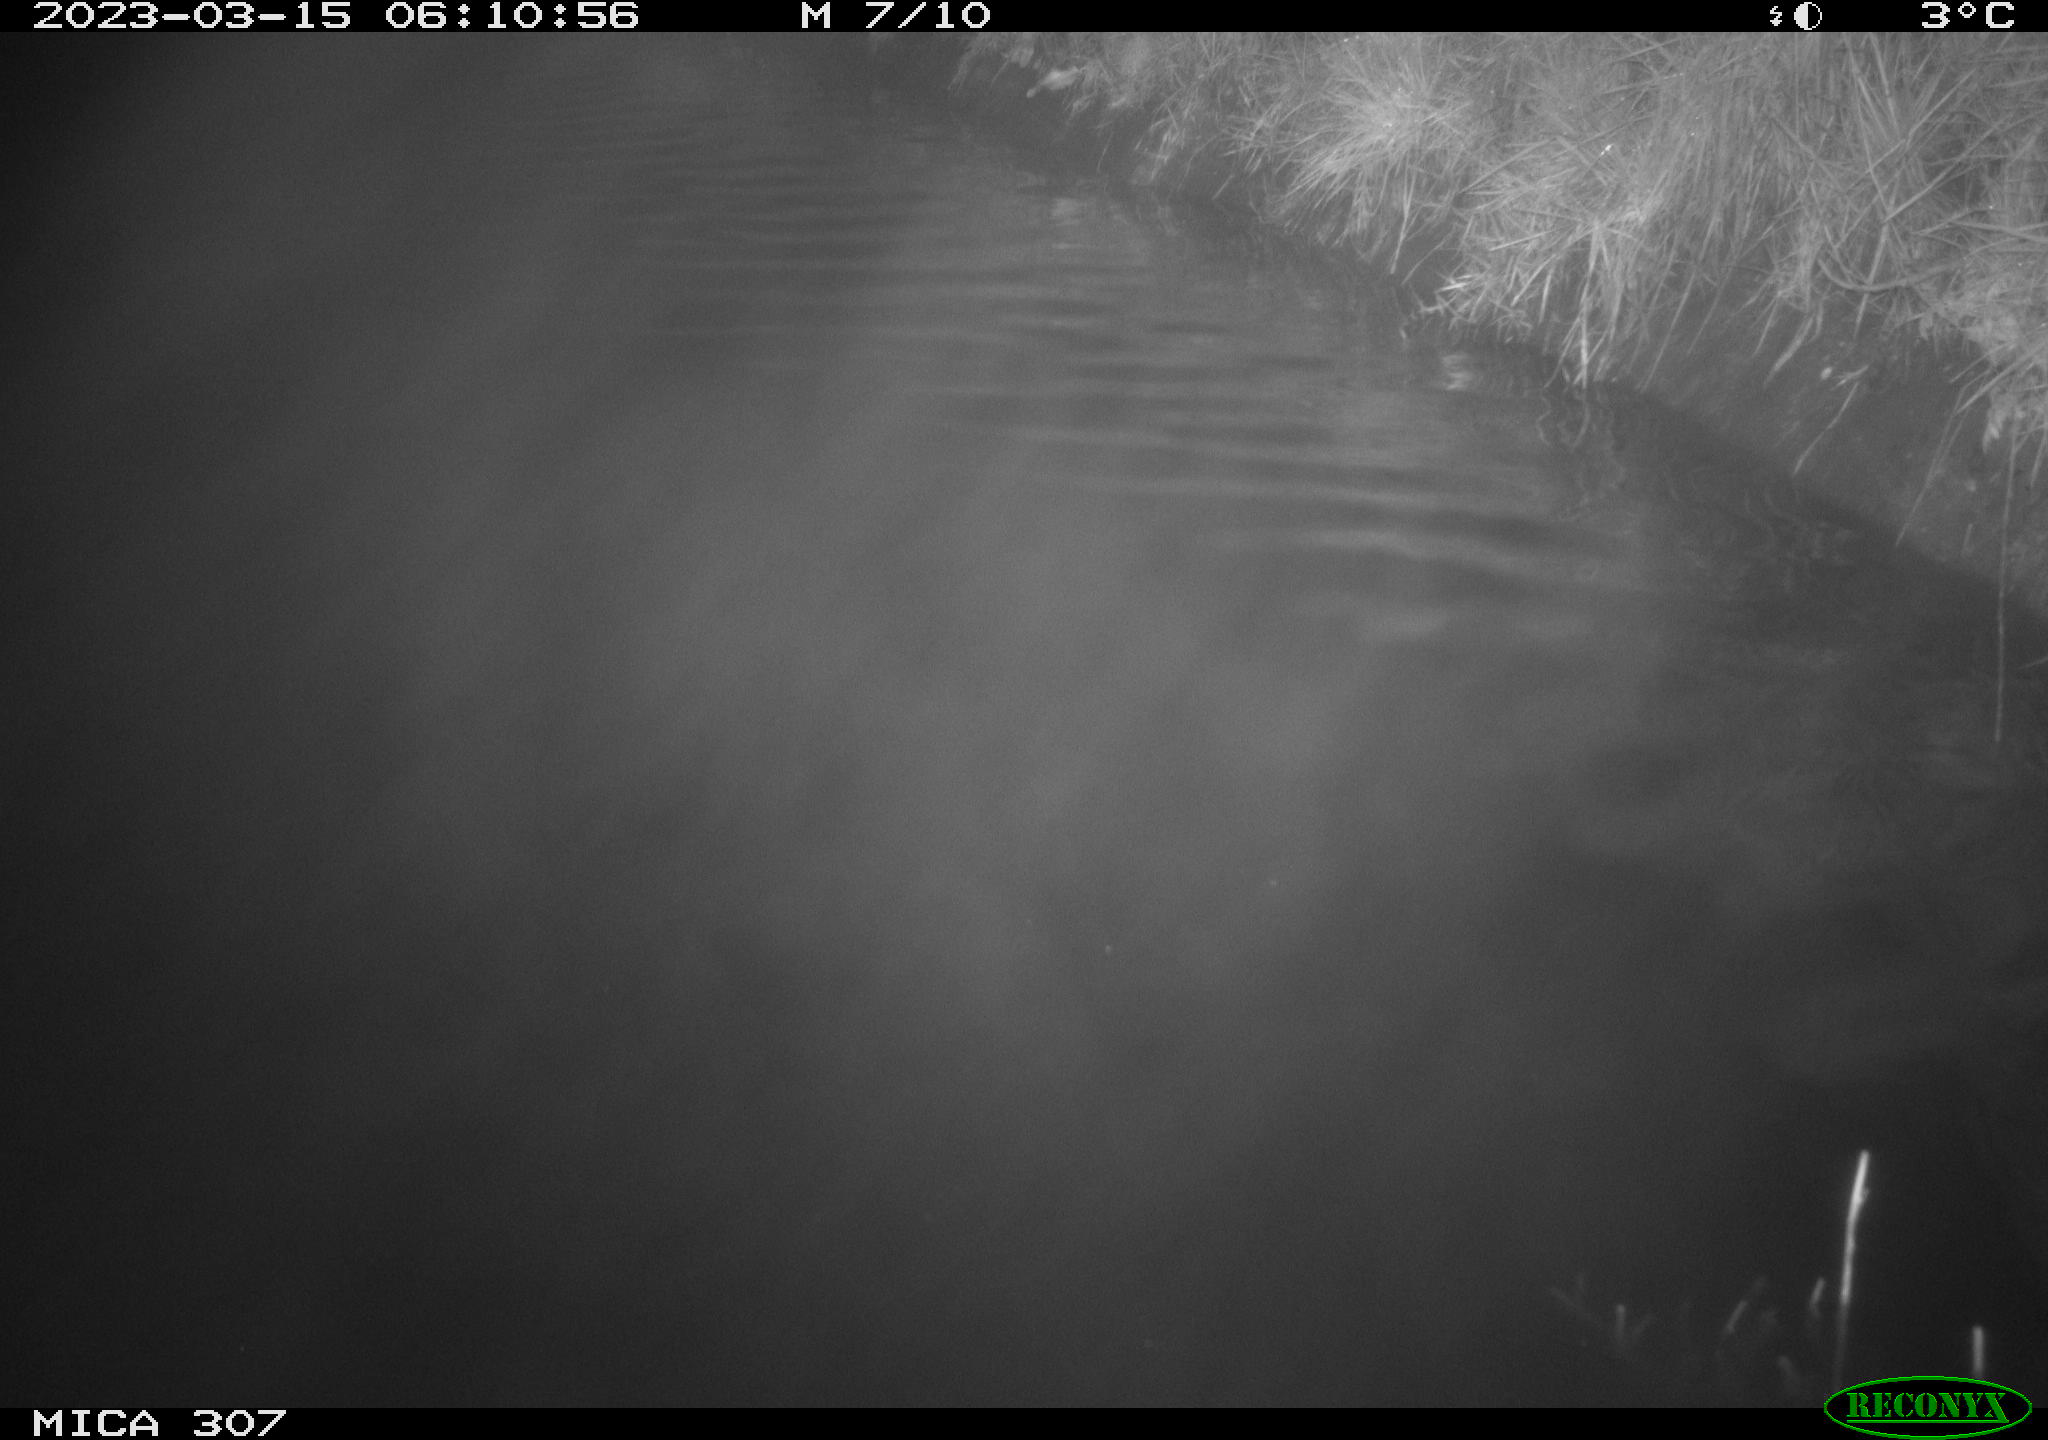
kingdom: Animalia
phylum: Chordata
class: Mammalia
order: Rodentia
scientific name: Rodentia
